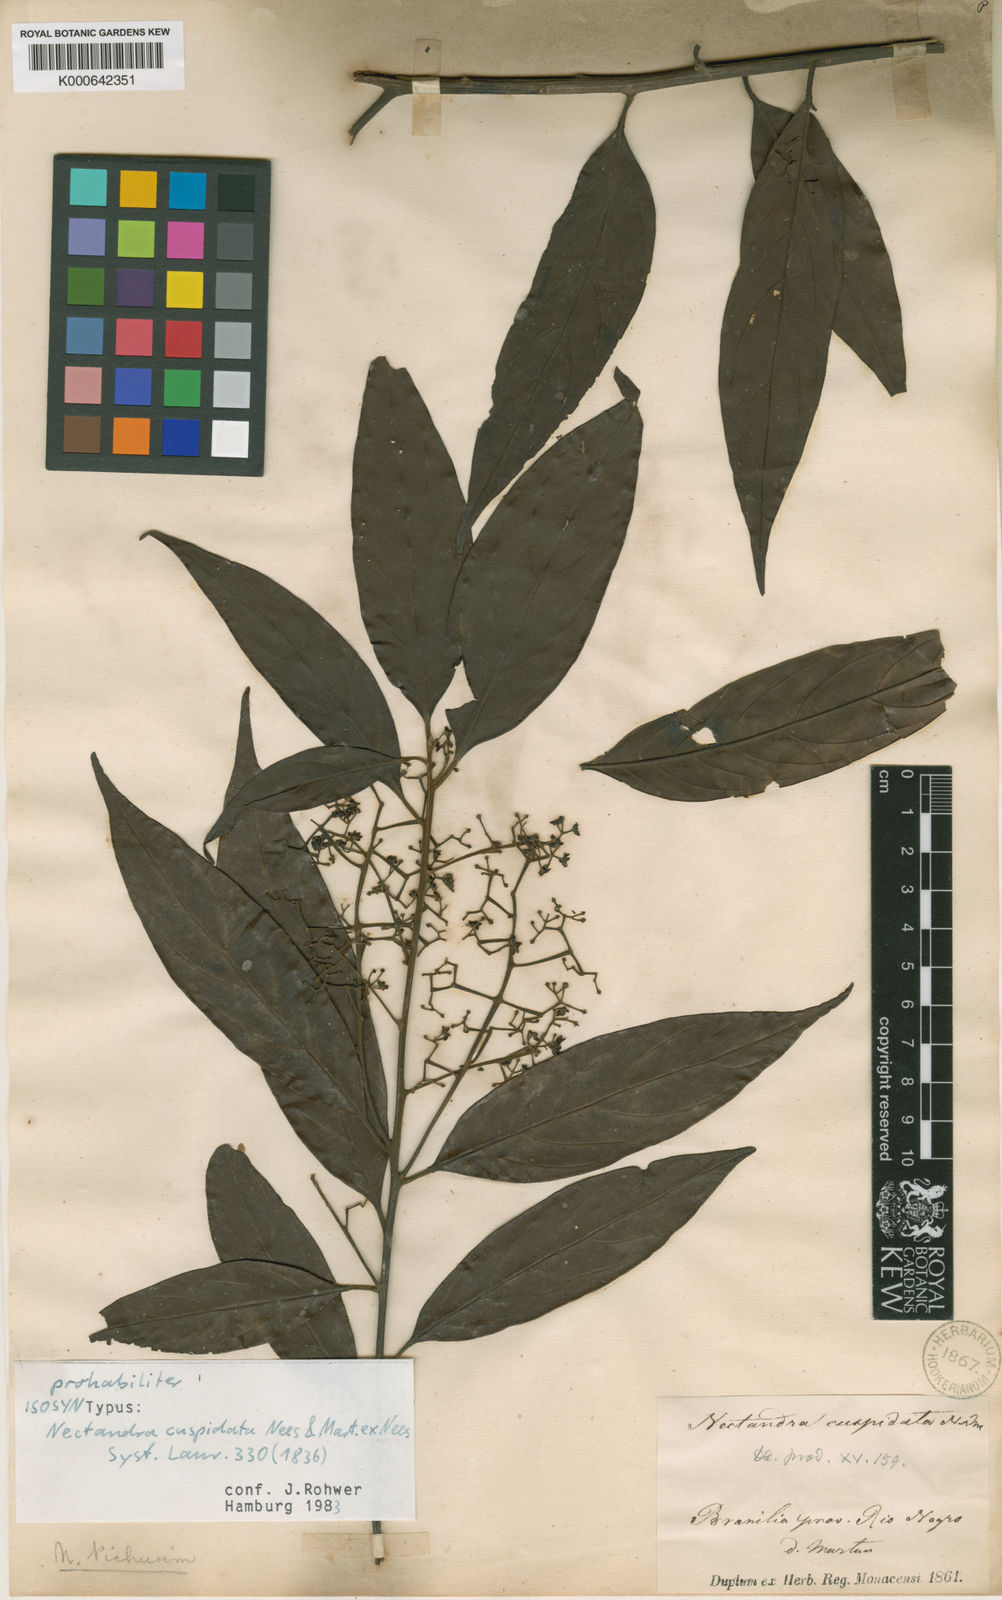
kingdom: Plantae
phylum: Tracheophyta
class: Magnoliopsida
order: Laurales
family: Lauraceae
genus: Nectandra
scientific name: Nectandra cuspidata
